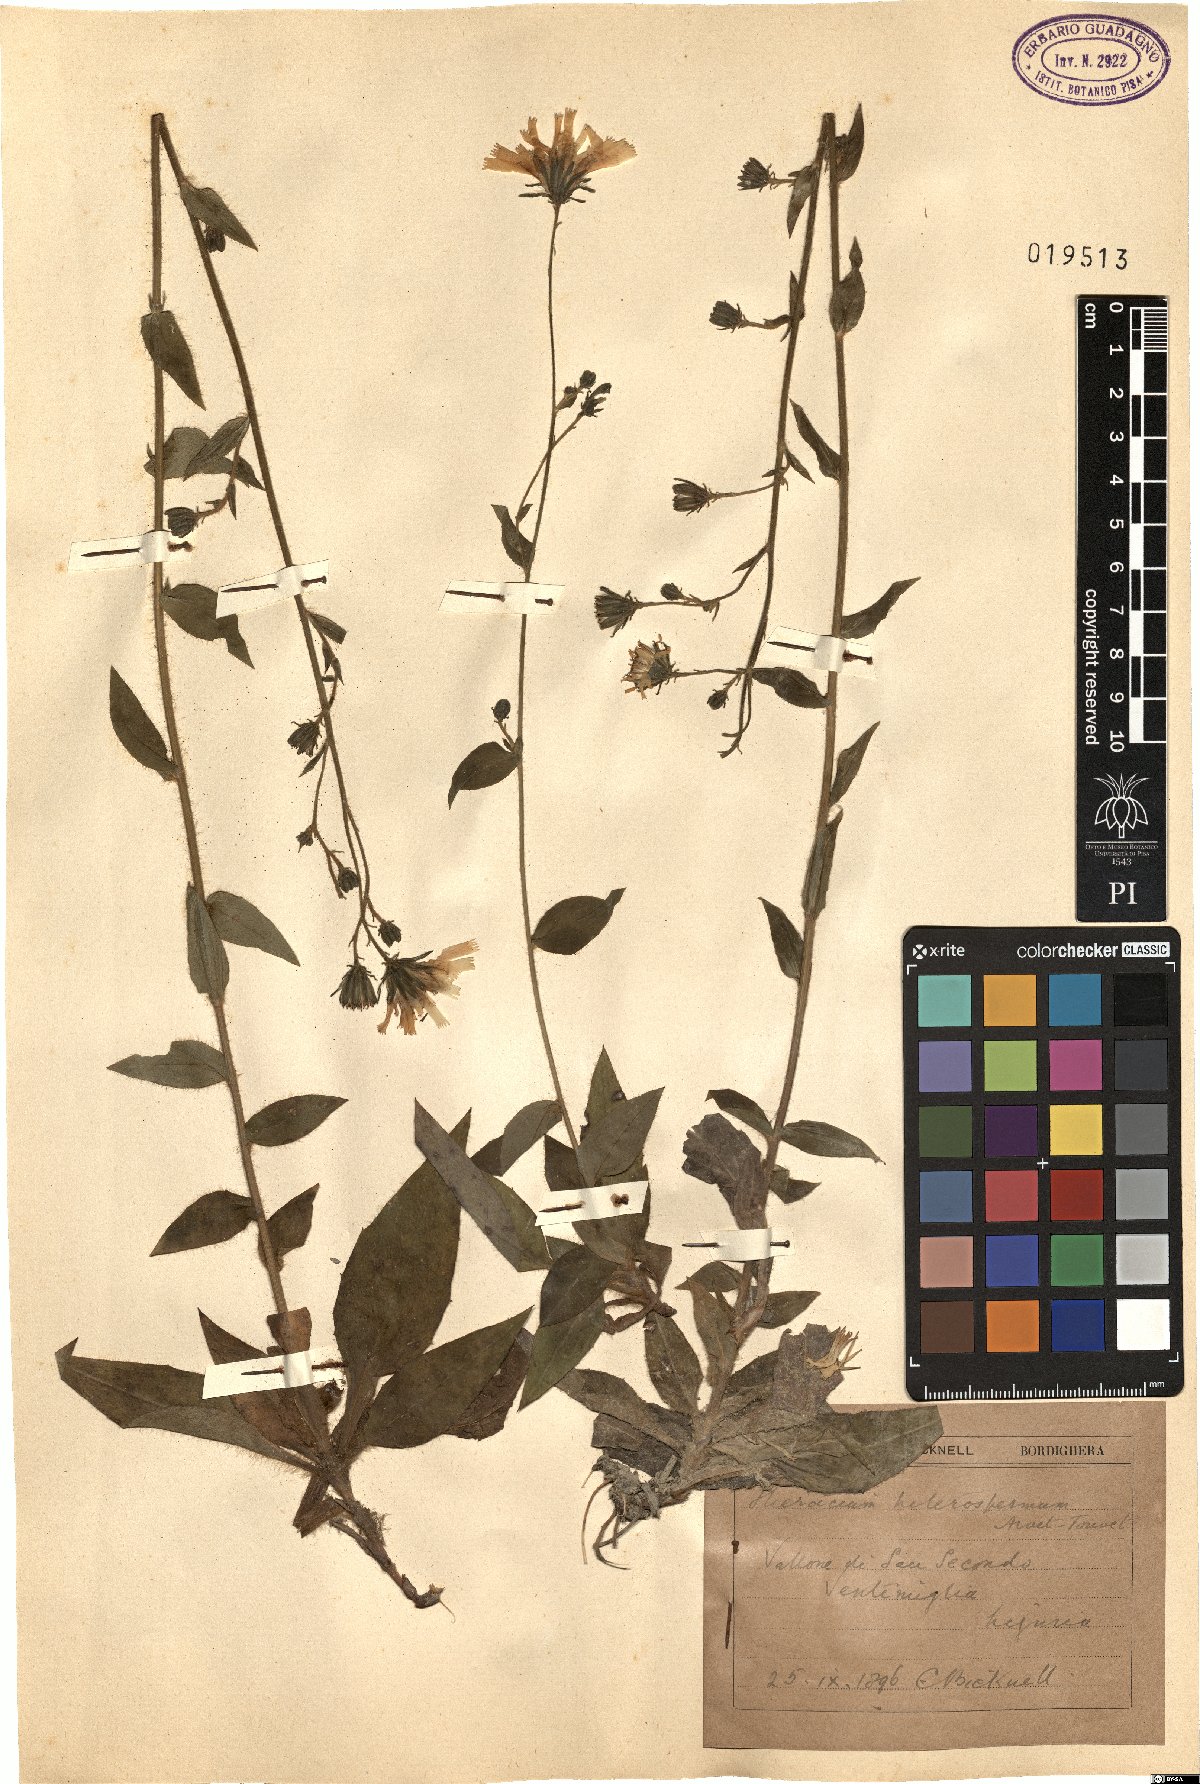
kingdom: Plantae
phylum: Tracheophyta
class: Magnoliopsida
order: Asterales
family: Asteraceae
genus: Hieracium
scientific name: Hieracium racemosum
